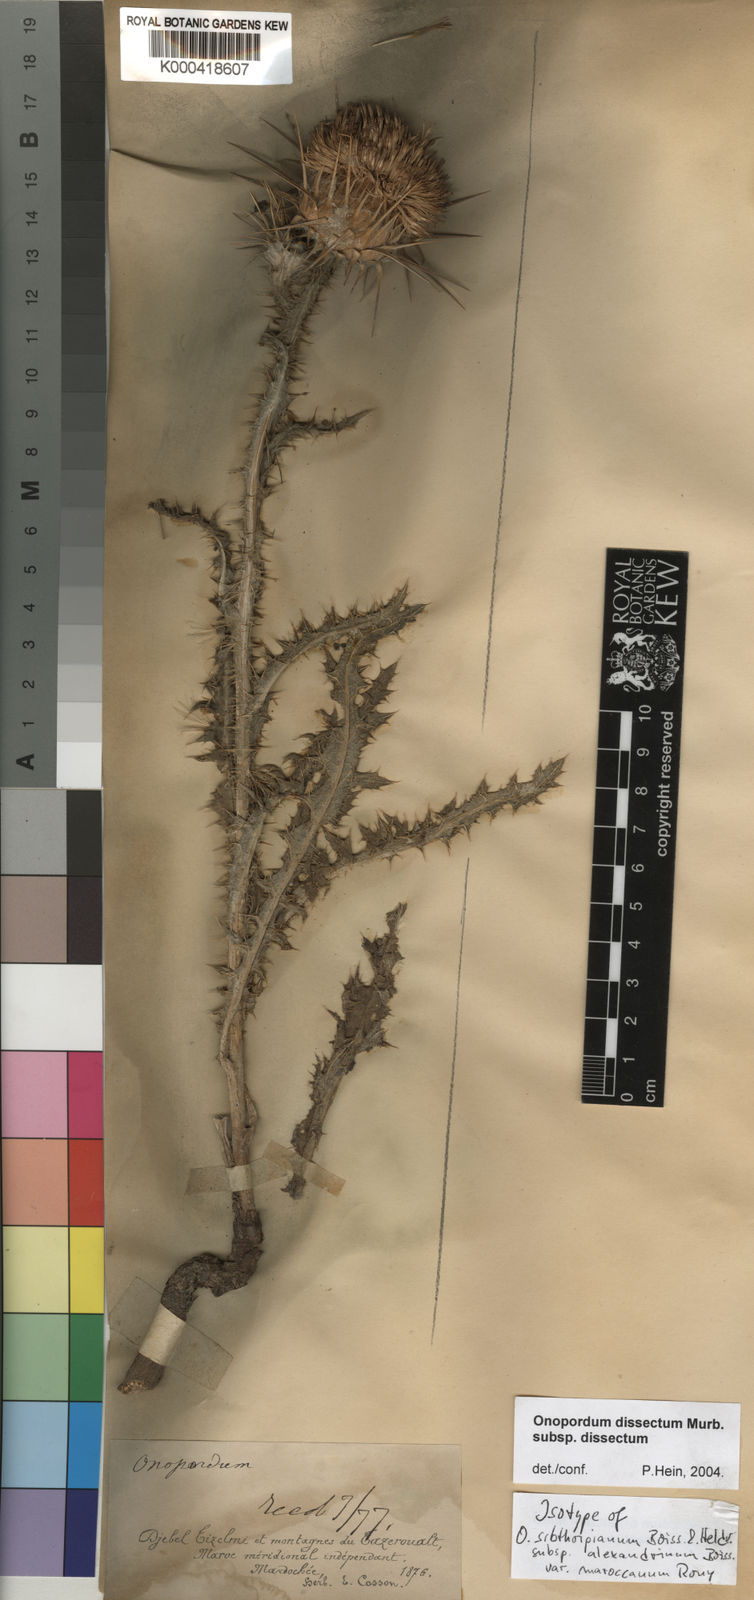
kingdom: Plantae
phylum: Tracheophyta
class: Magnoliopsida
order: Asterales
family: Asteraceae
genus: Onopordum
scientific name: Onopordum dissectum
